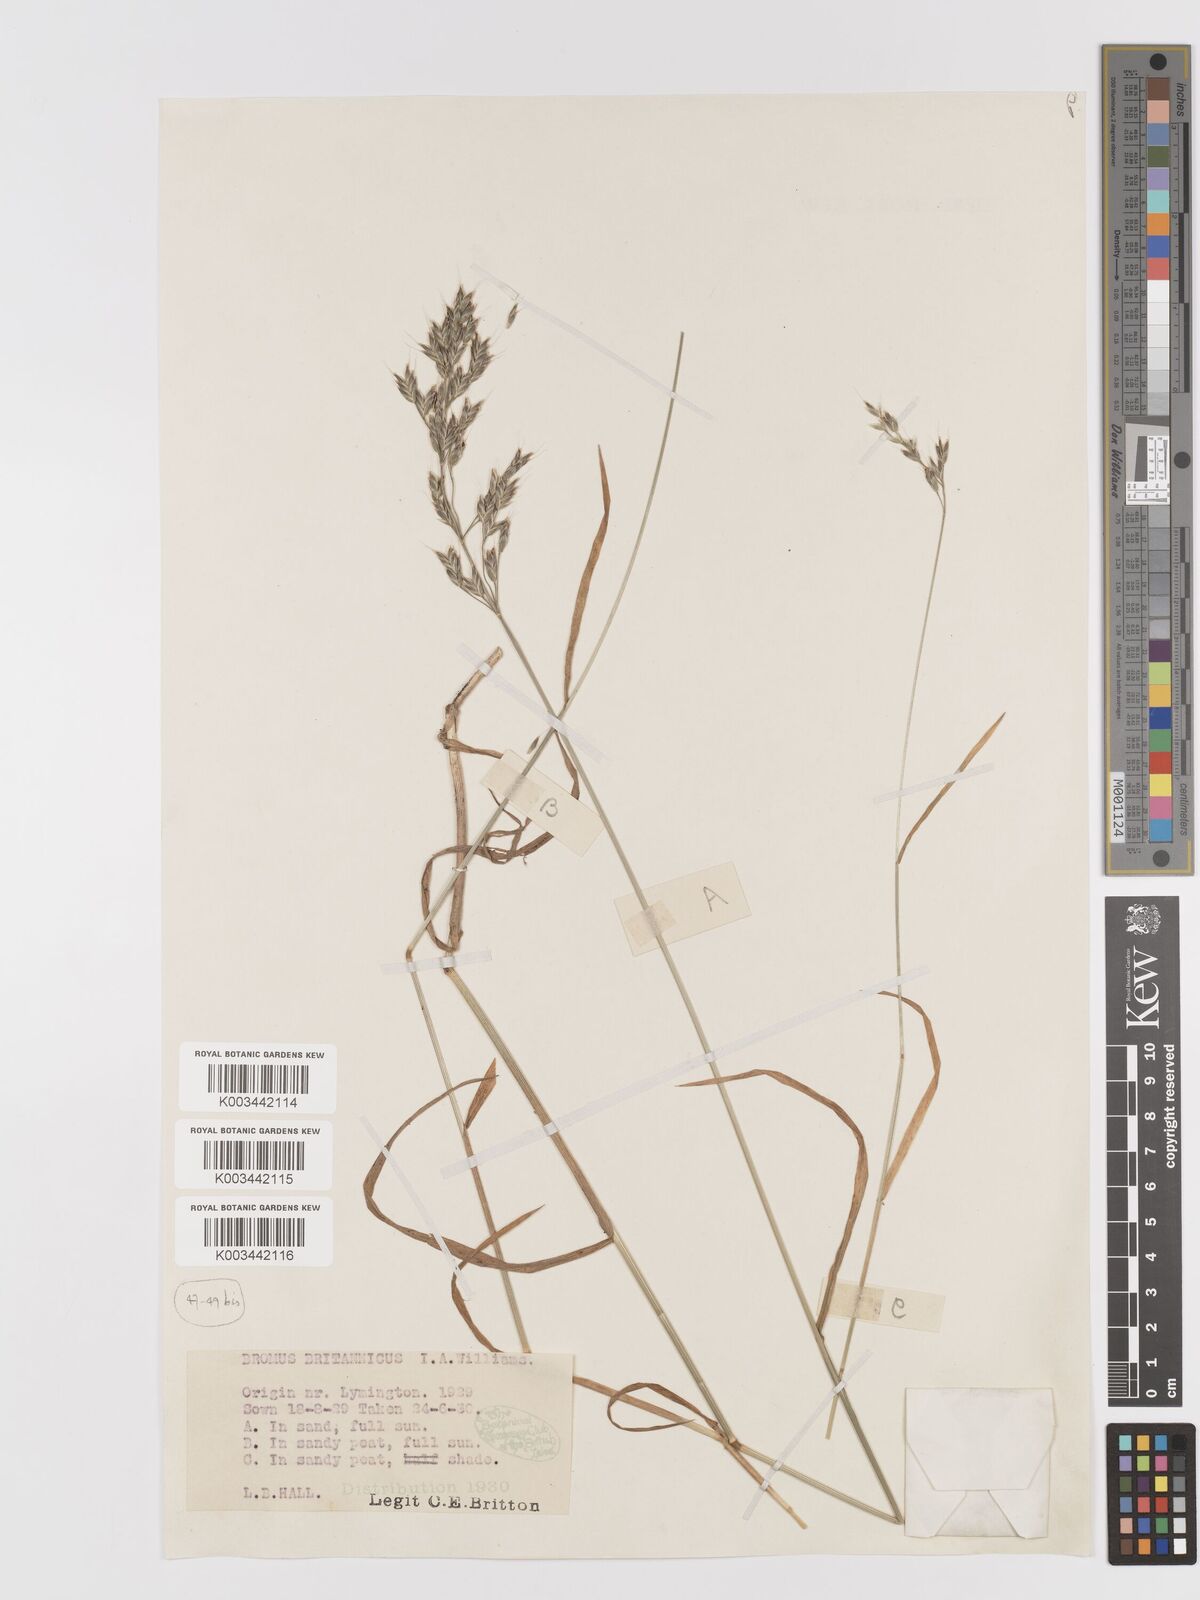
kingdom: Plantae
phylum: Tracheophyta
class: Liliopsida
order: Poales
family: Poaceae
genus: Bromus
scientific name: Bromus lepidus
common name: Slender soft-brome
